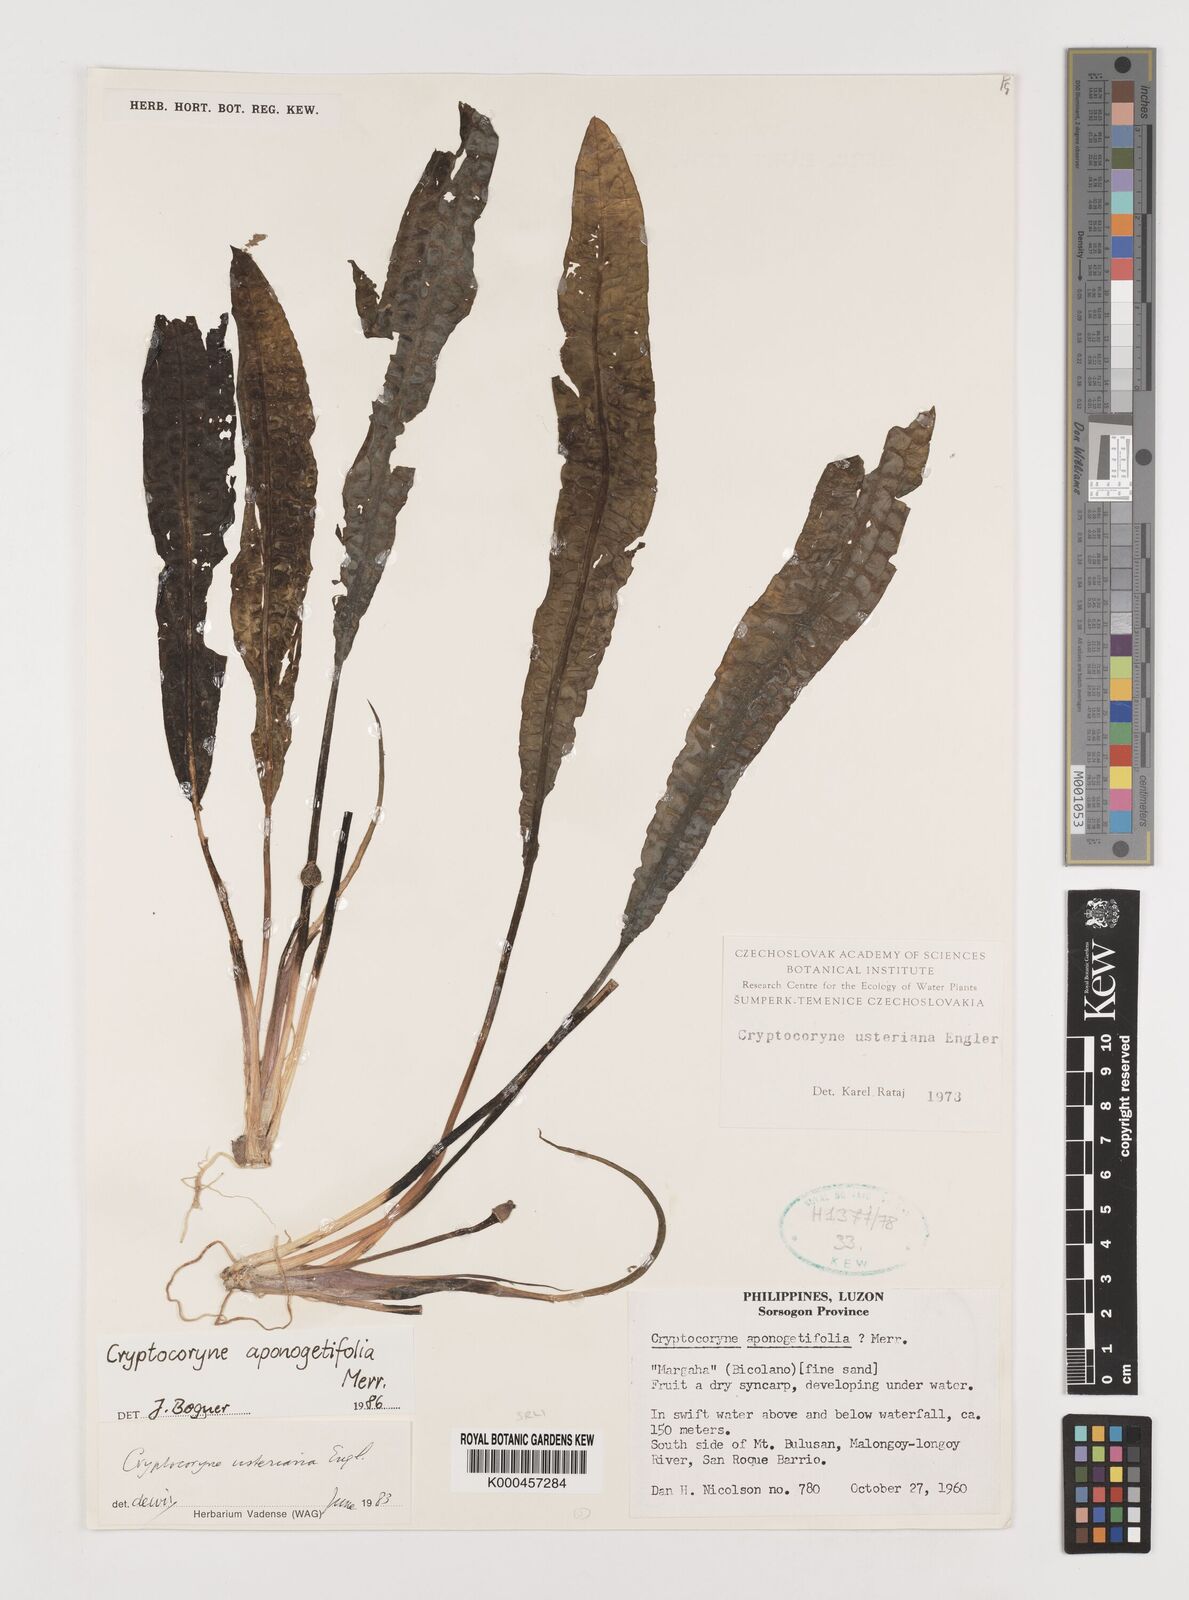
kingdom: Plantae
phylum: Tracheophyta
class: Liliopsida
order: Alismatales
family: Araceae
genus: Cryptocoryne
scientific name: Cryptocoryne aponogetifolia
